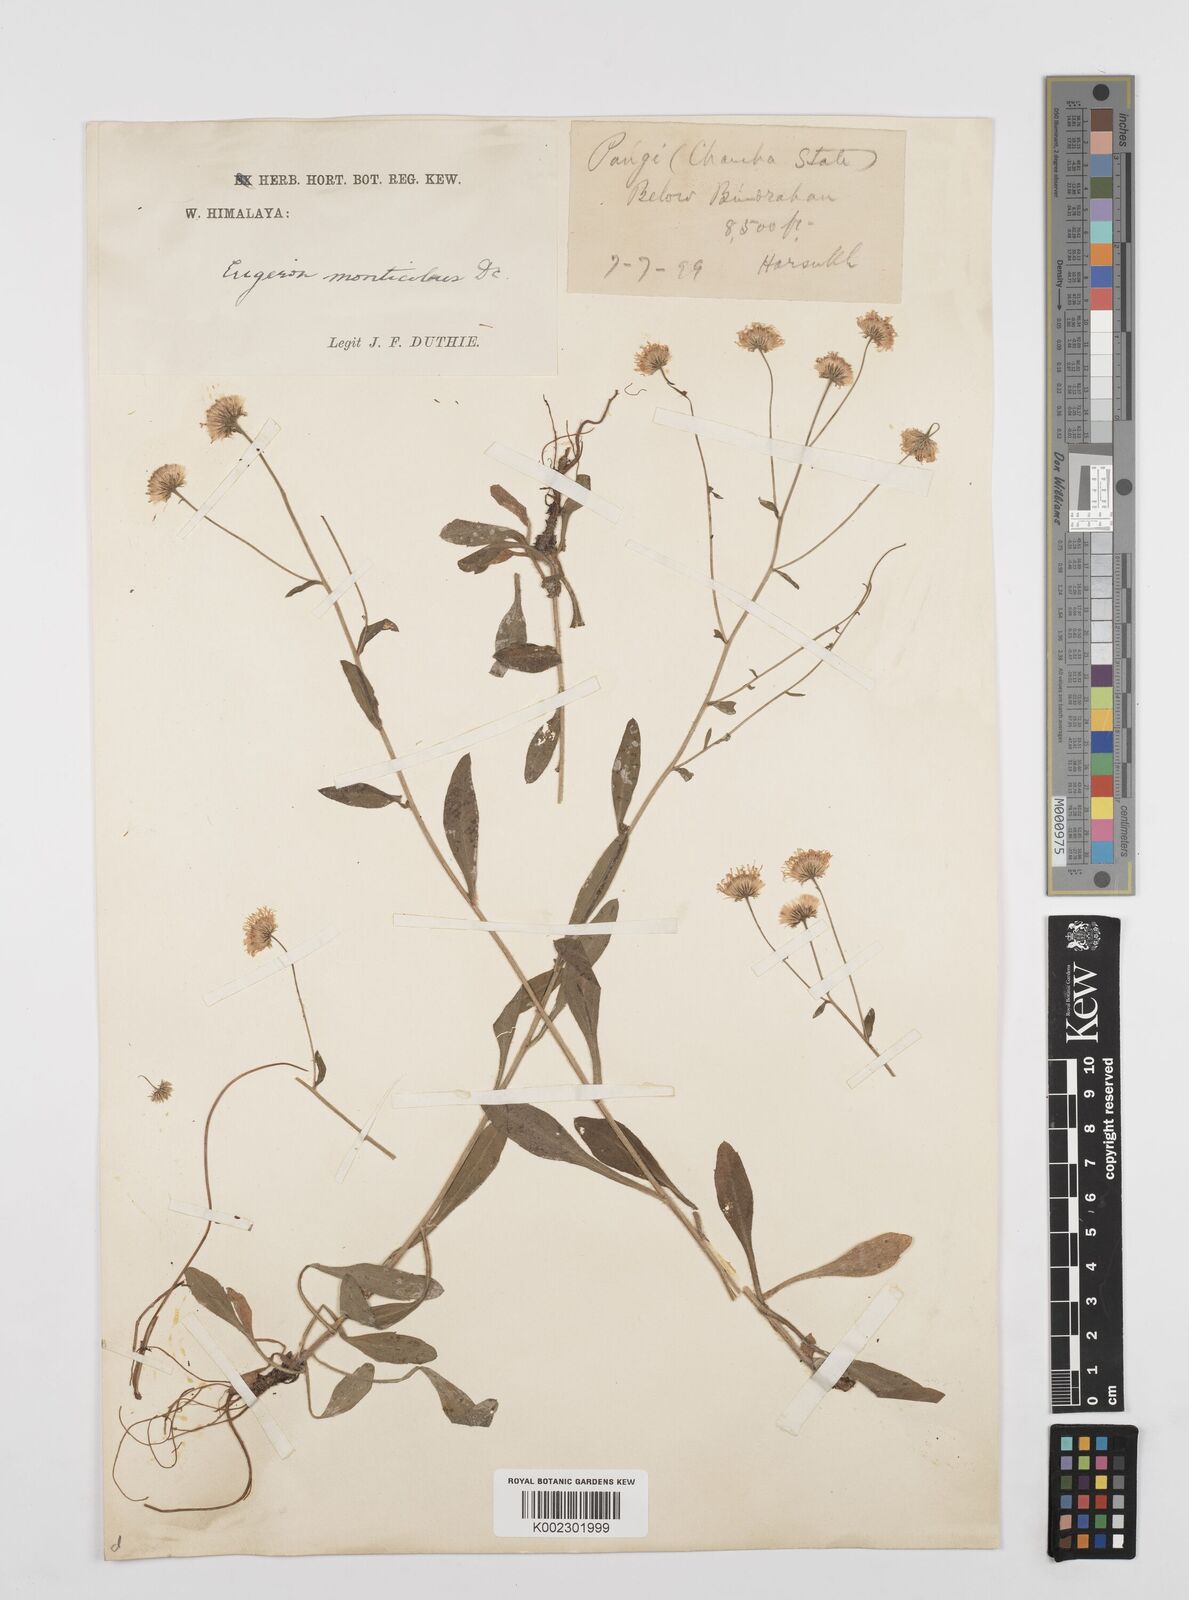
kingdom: Plantae
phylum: Tracheophyta
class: Magnoliopsida
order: Asterales
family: Asteraceae
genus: Erigeron
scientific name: Erigeron alpinus
